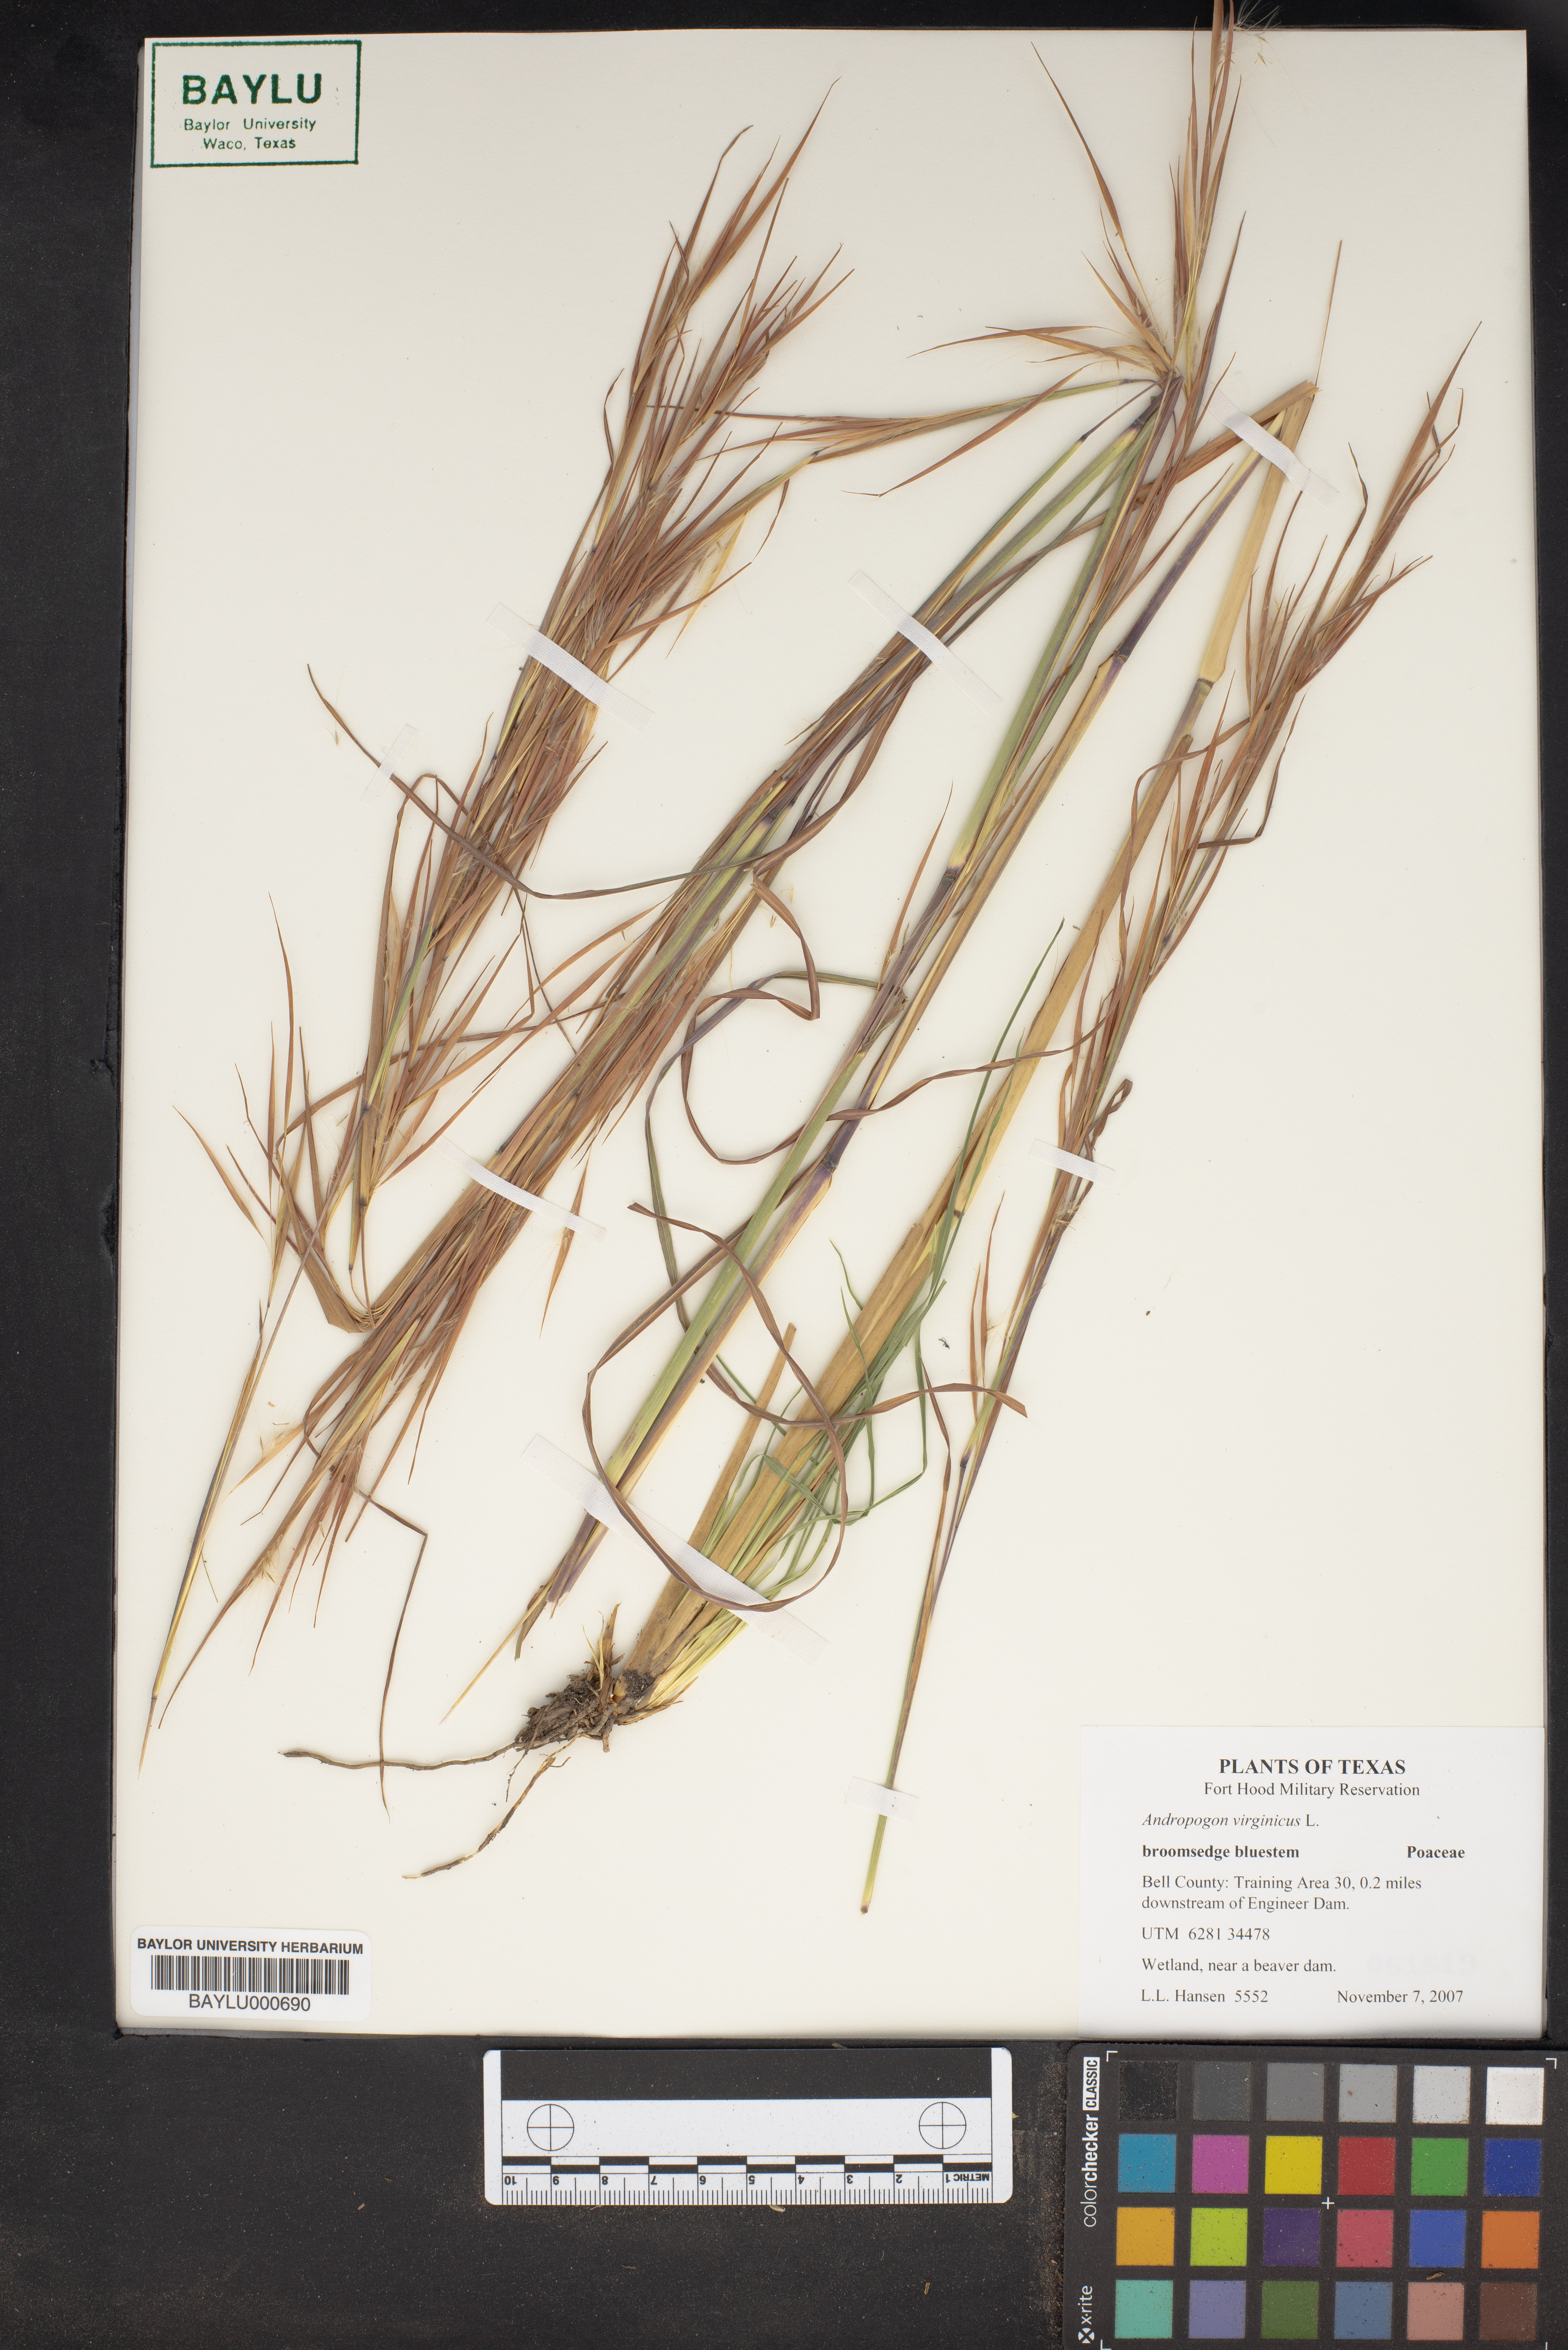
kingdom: Plantae
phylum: Tracheophyta
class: Liliopsida
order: Poales
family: Poaceae
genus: Andropogon
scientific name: Andropogon virginicus
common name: Broomsedge bluestem
